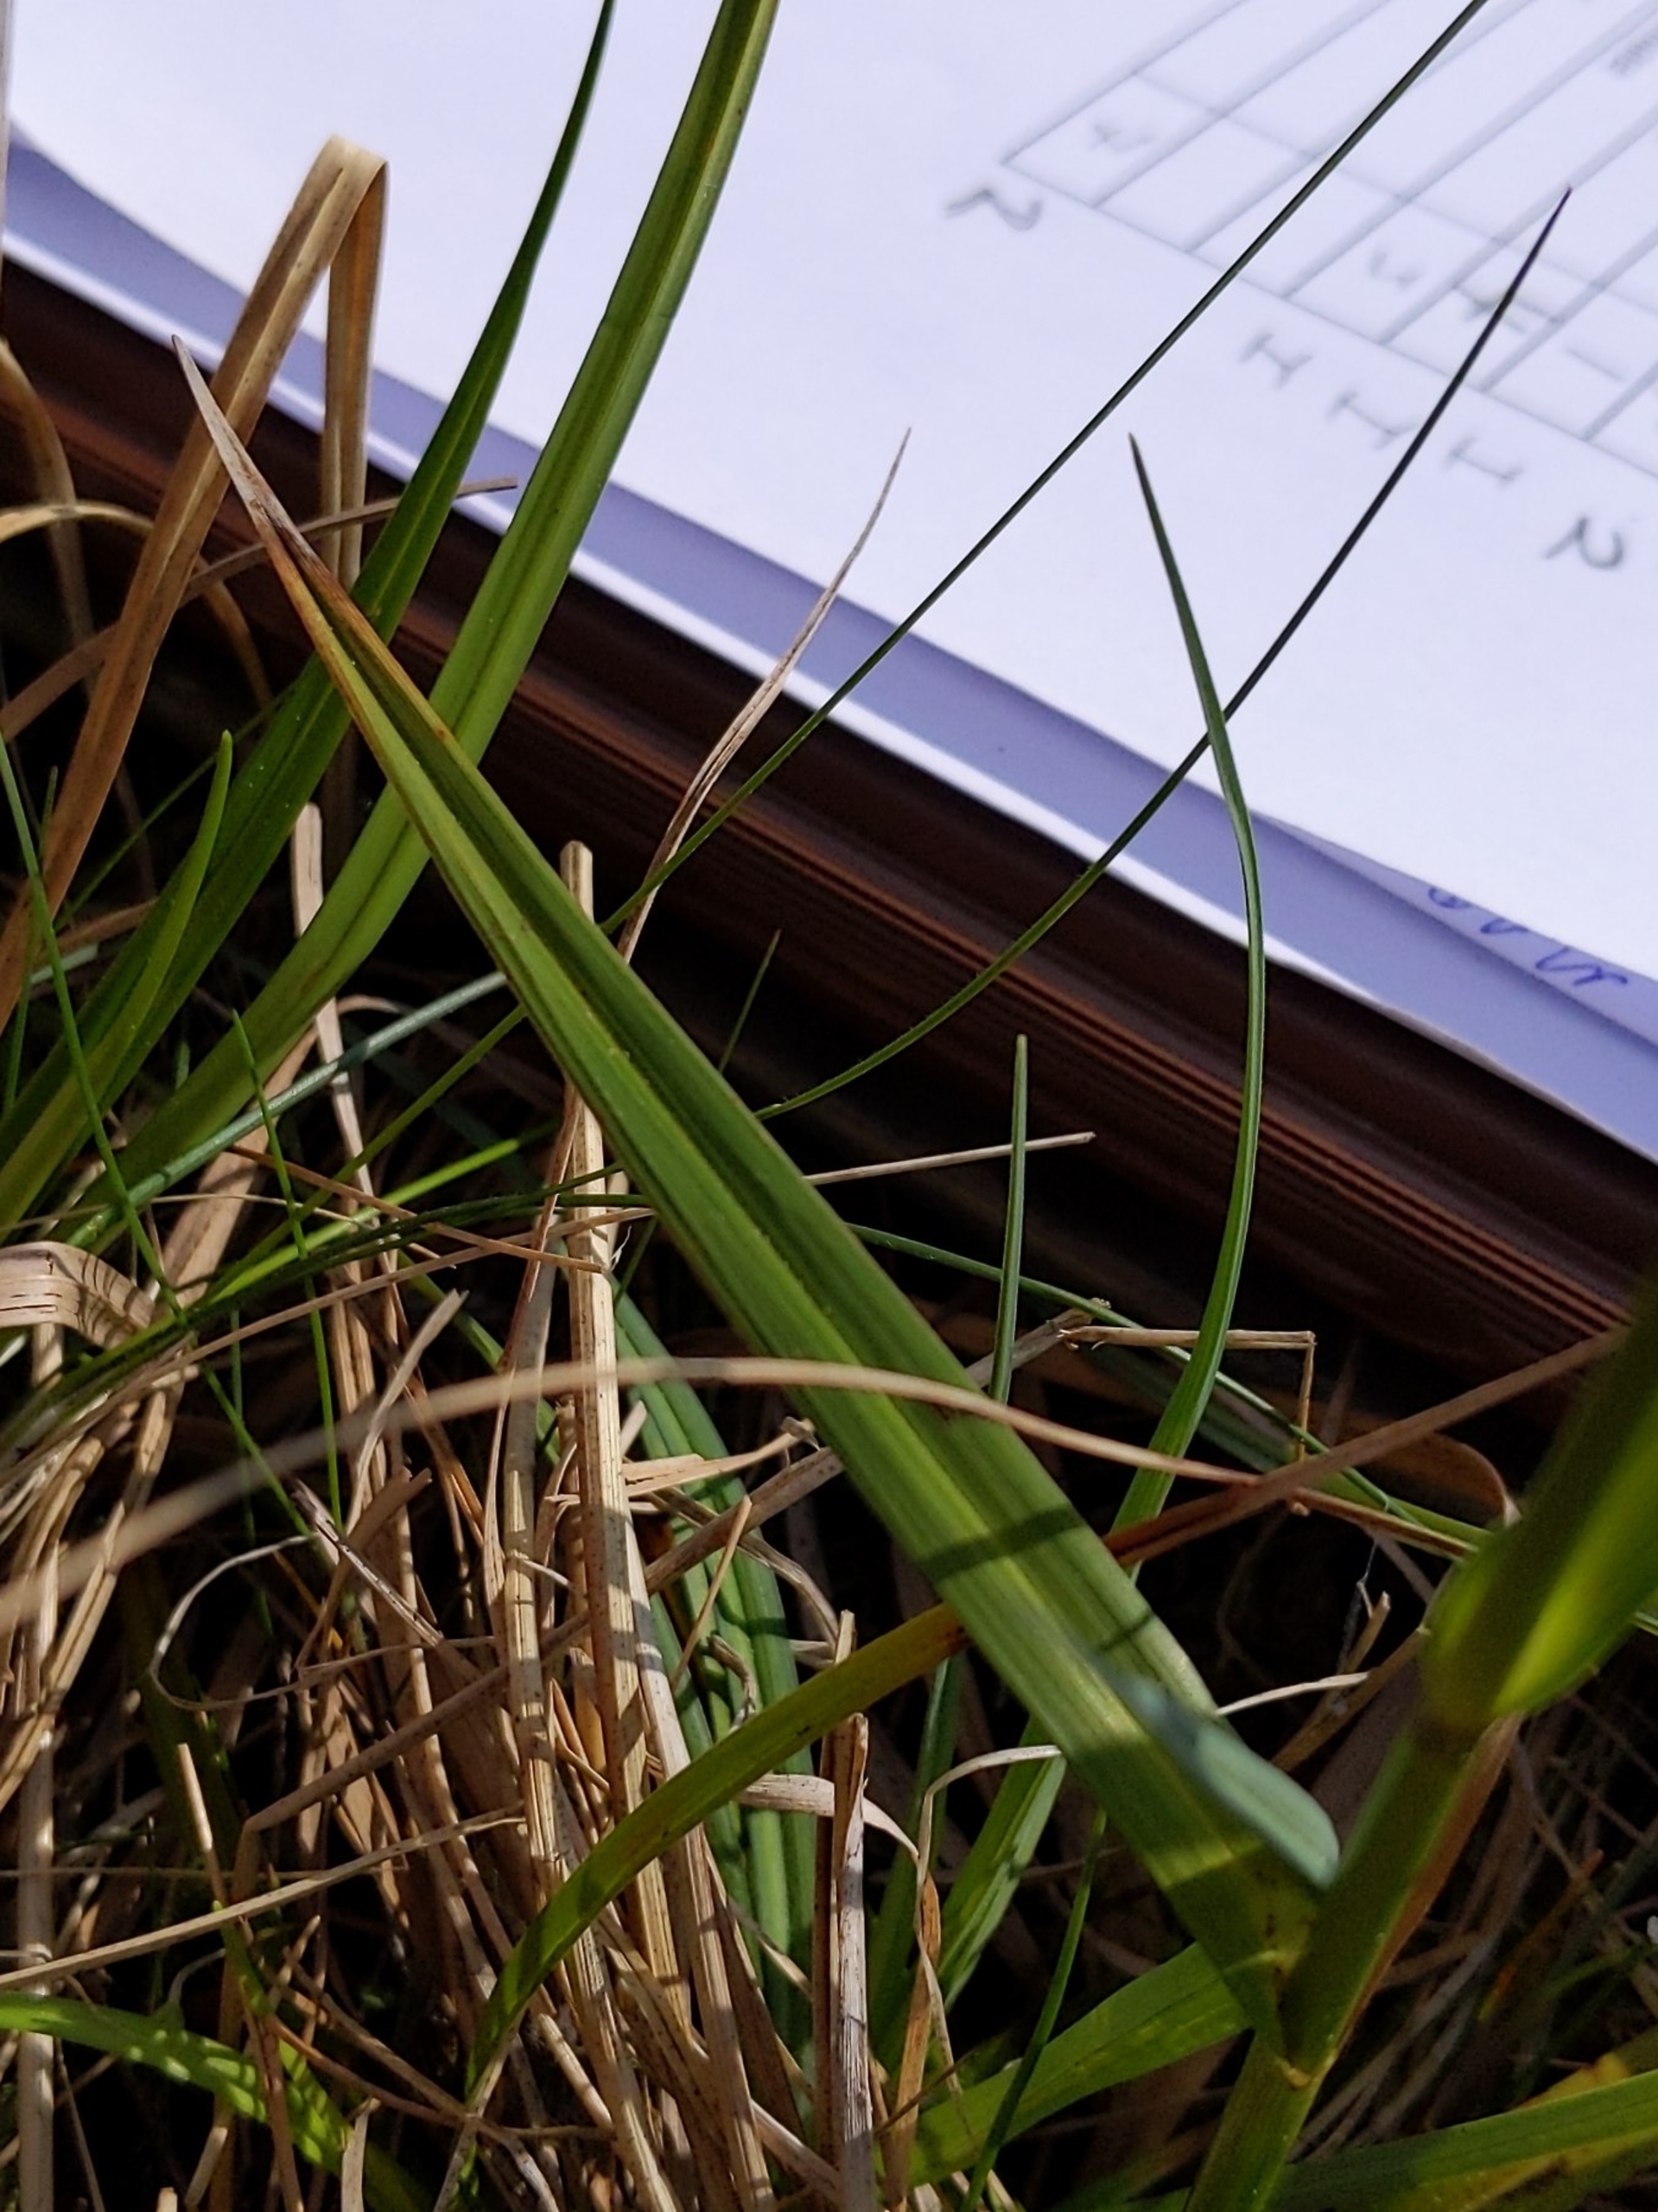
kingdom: Plantae
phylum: Tracheophyta
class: Liliopsida
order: Poales
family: Cyperaceae
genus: Eriophorum
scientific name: Eriophorum latifolium
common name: Bredbladet kæruld
